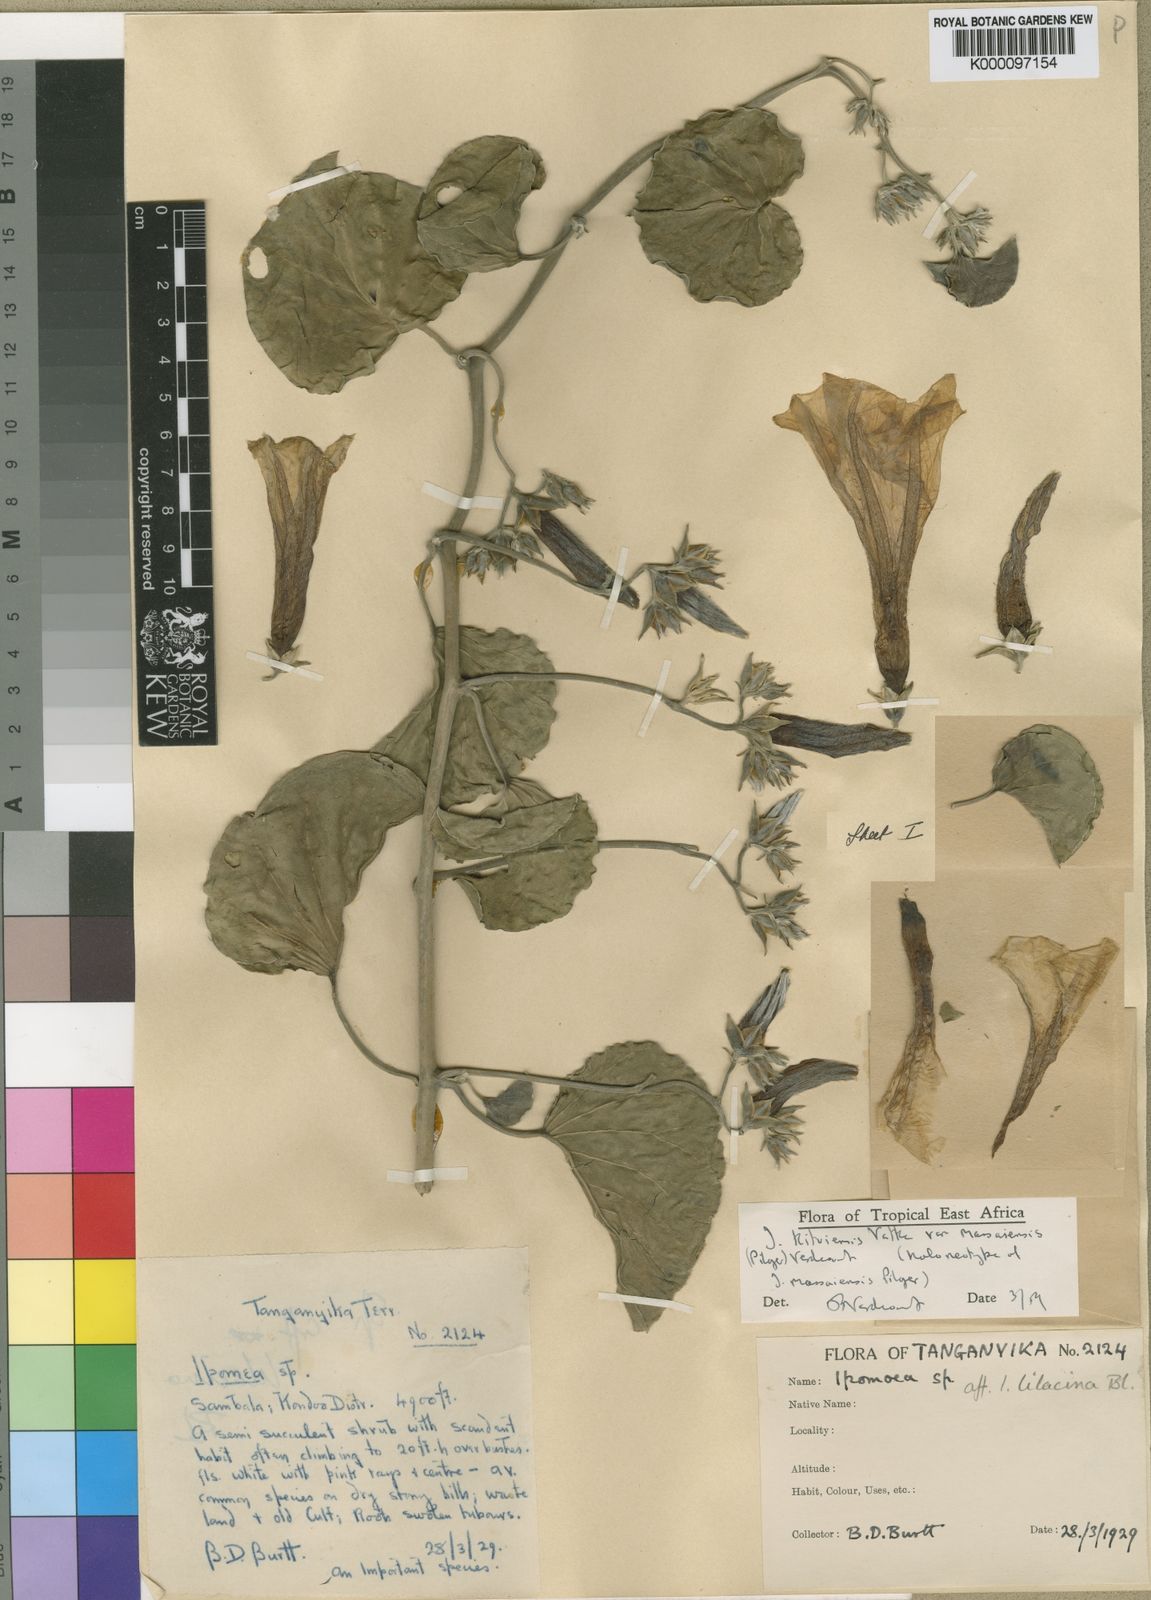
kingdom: Plantae
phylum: Tracheophyta
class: Magnoliopsida
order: Solanales
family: Convolvulaceae
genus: Ipomoea
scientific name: Ipomoea kituiensis
